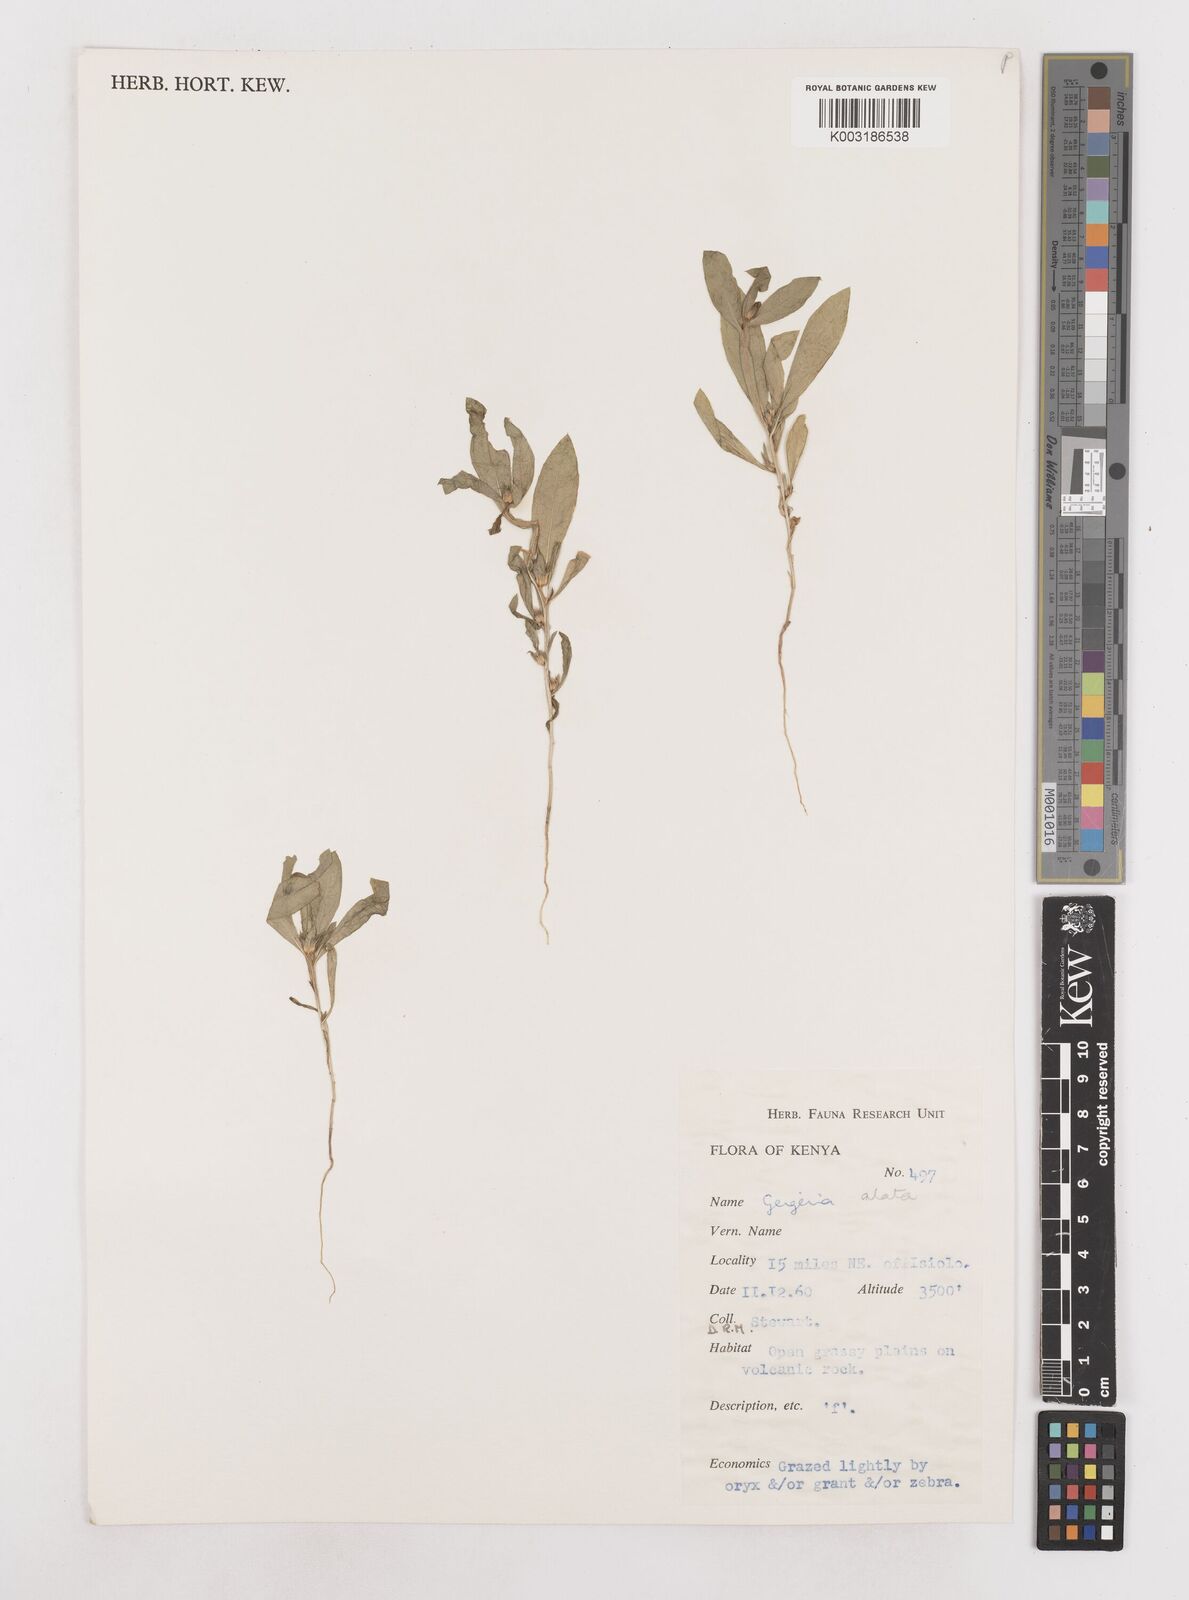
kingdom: Plantae
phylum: Tracheophyta
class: Magnoliopsida
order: Asterales
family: Asteraceae
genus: Geigeria
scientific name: Geigeria alata
